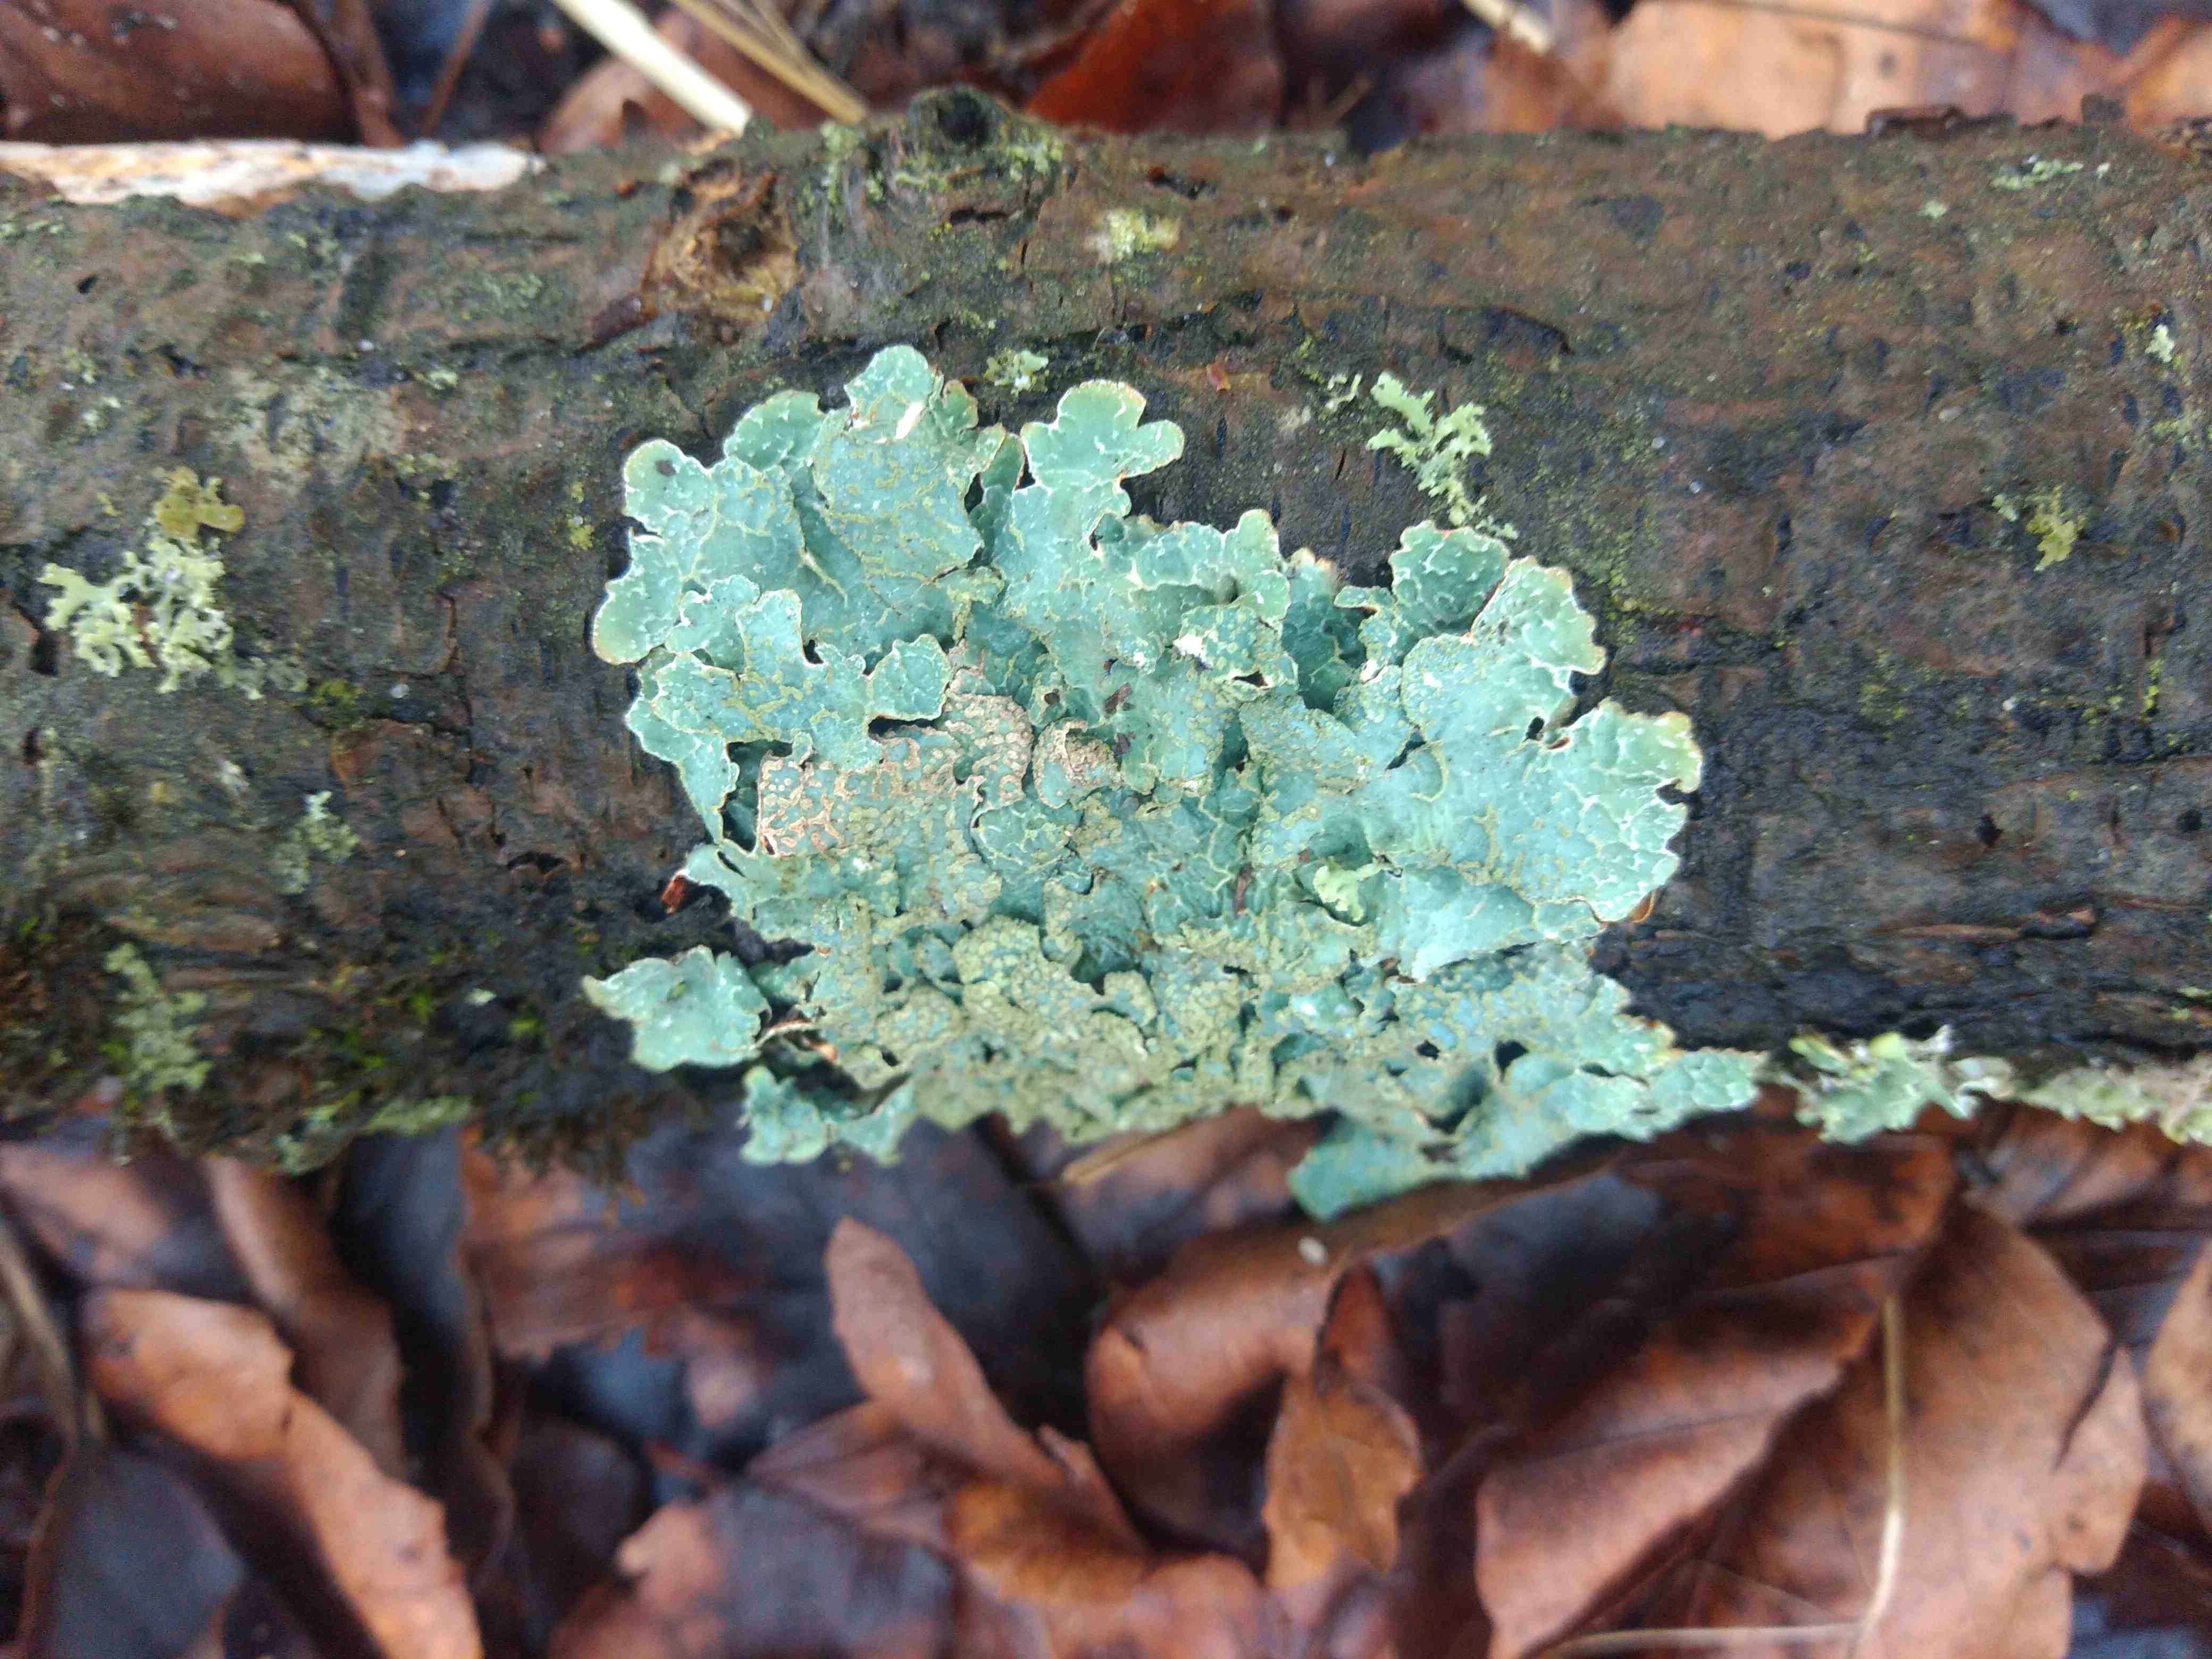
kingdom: Fungi
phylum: Ascomycota
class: Lecanoromycetes
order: Lecanorales
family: Parmeliaceae
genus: Parmelia
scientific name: Parmelia sulcata
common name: rynket skållav
